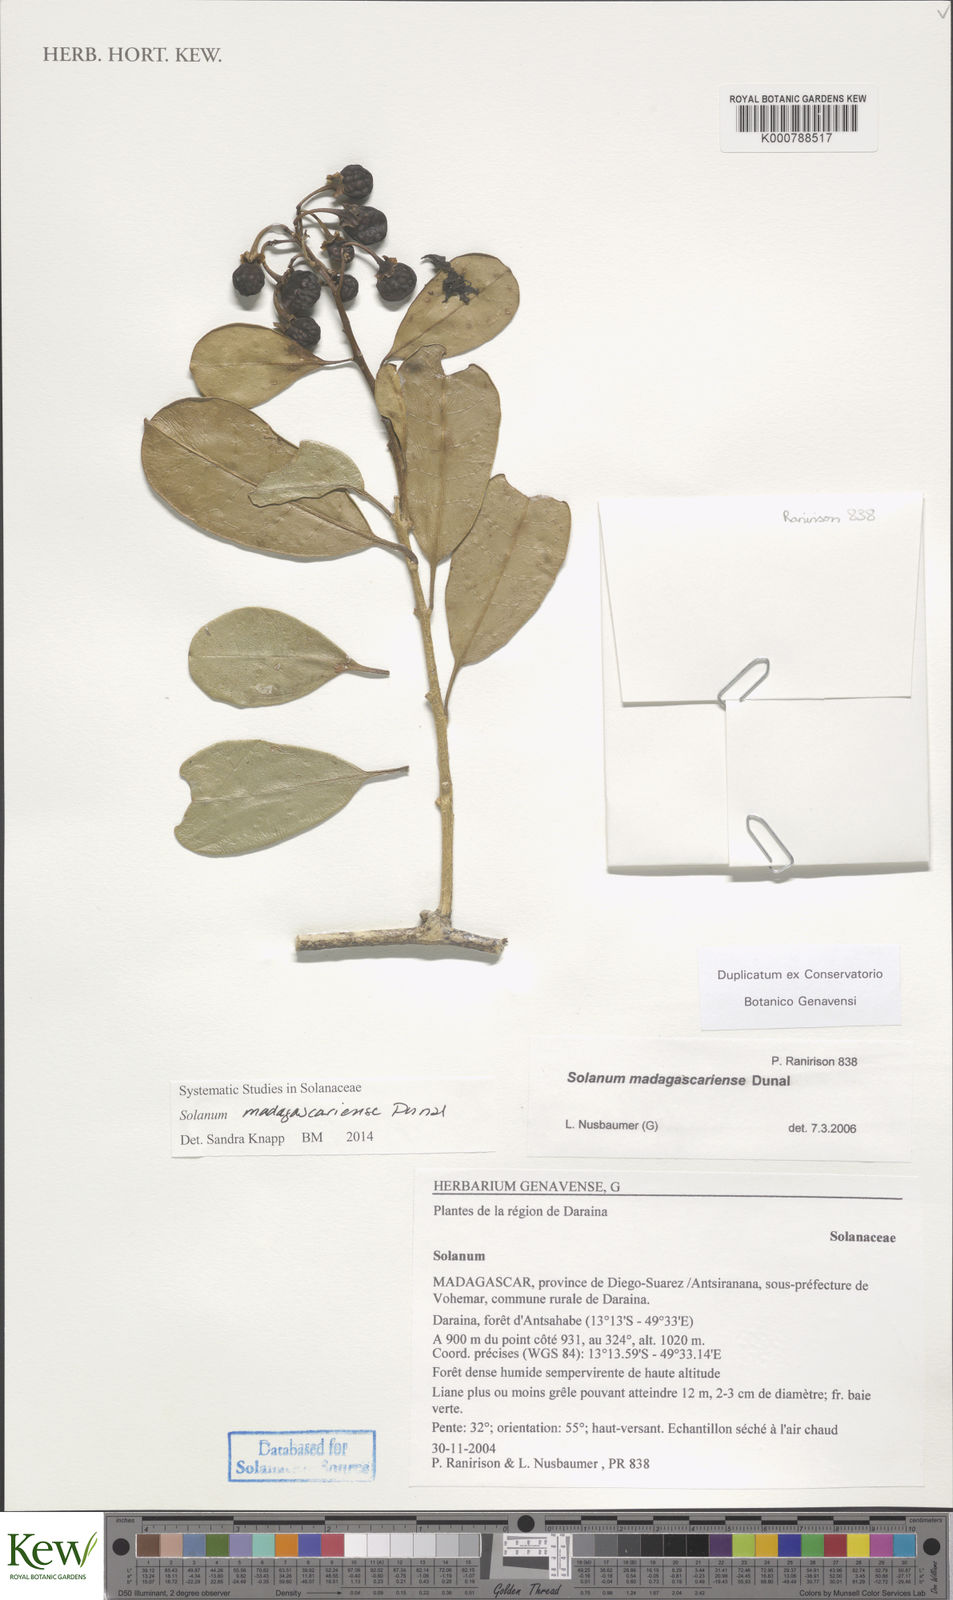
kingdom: Plantae
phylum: Tracheophyta
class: Magnoliopsida
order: Solanales
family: Solanaceae
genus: Solanum
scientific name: Solanum madagascariense
